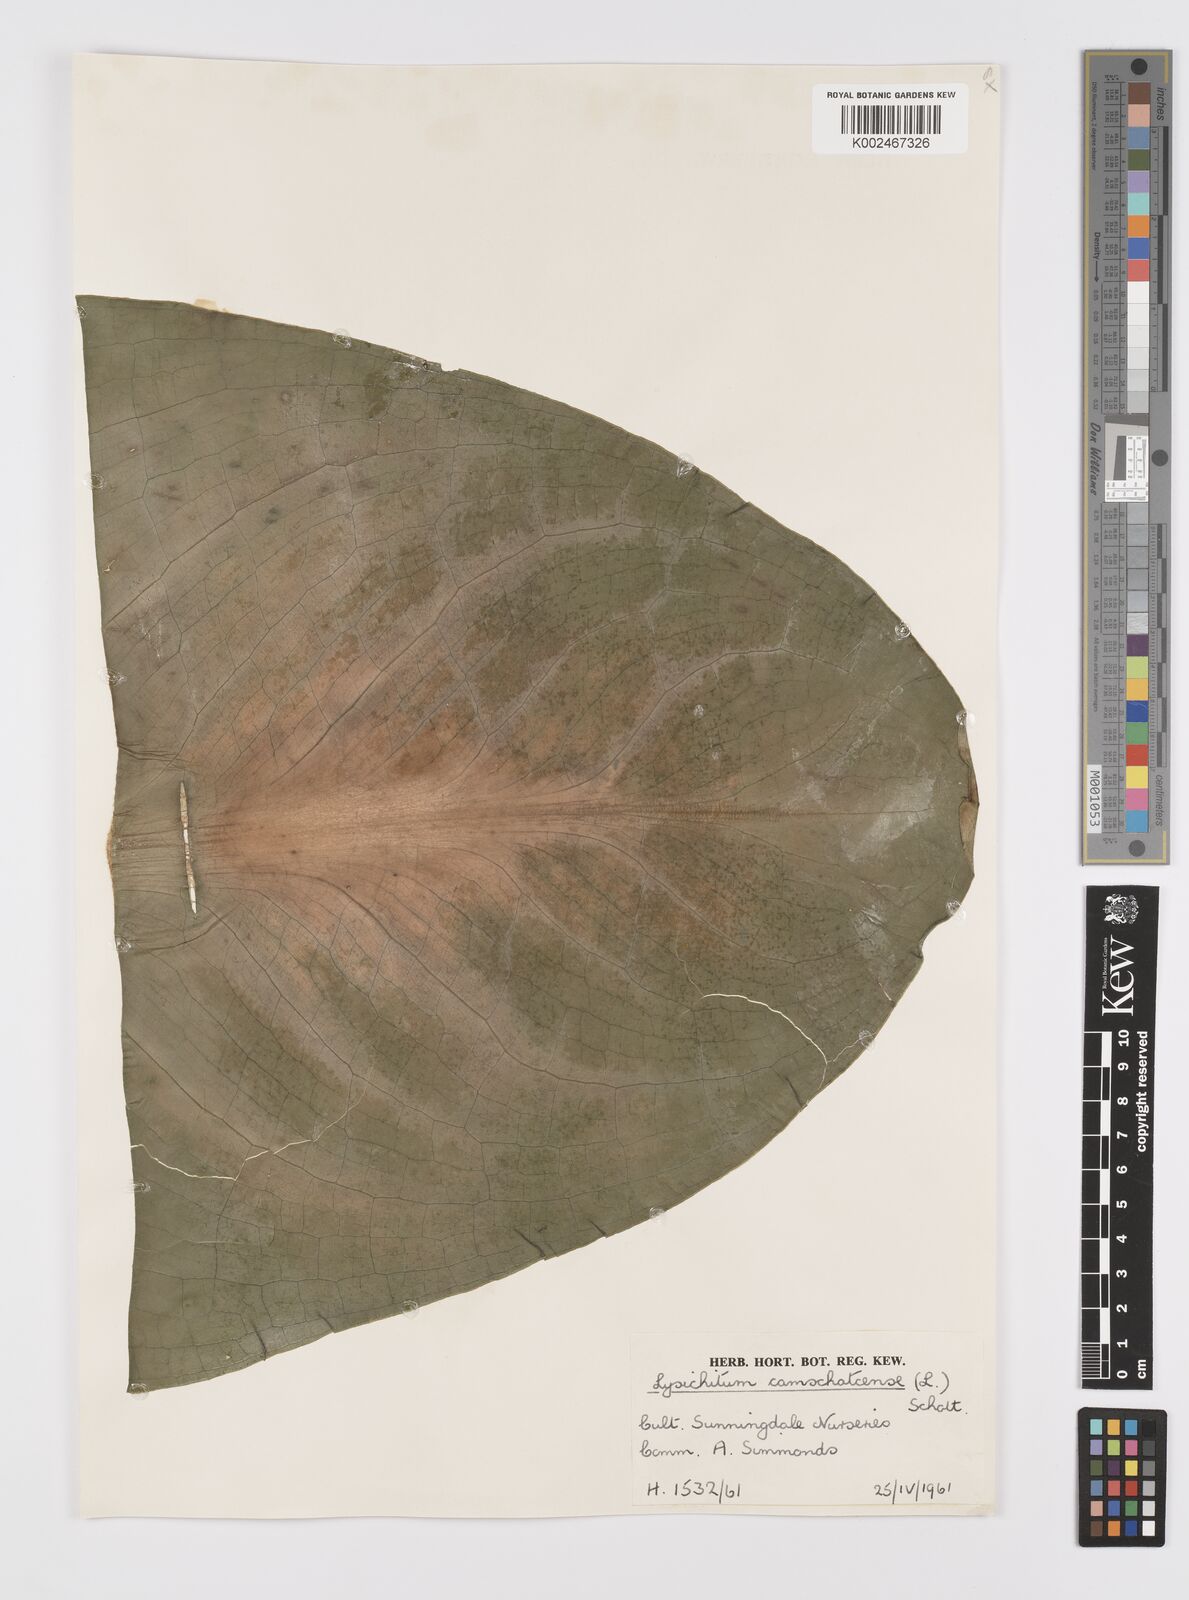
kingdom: Plantae
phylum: Tracheophyta
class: Liliopsida
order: Alismatales
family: Araceae
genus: Lysichiton
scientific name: Lysichiton americanus
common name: American skunk cabbage
